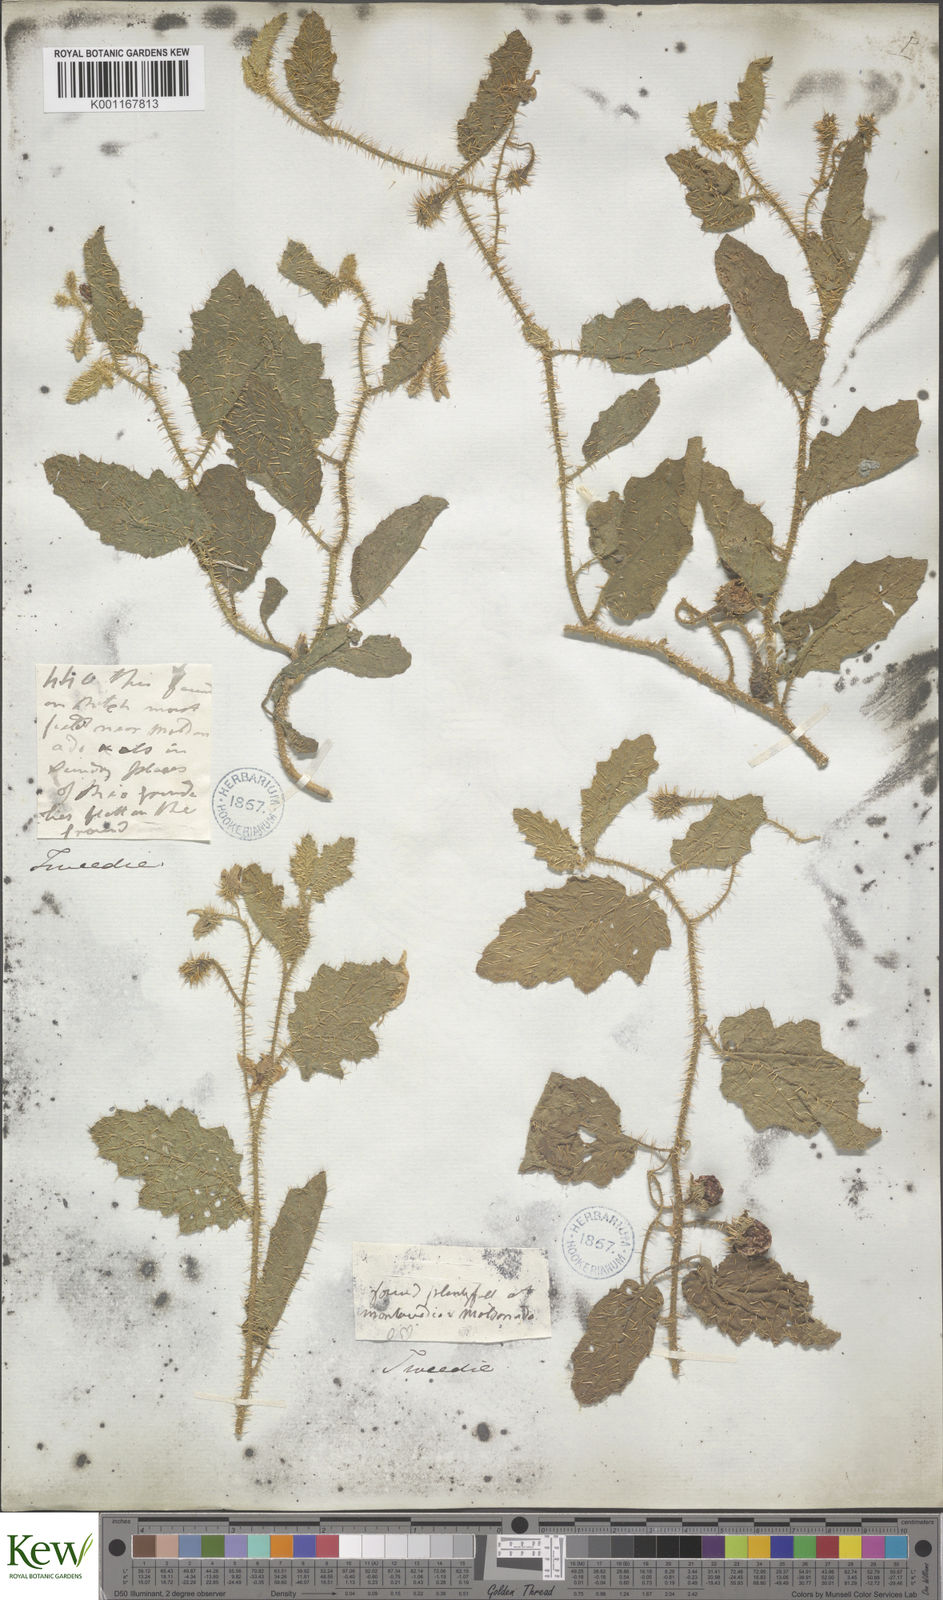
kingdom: Plantae
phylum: Tracheophyta
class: Magnoliopsida
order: Solanales
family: Solanaceae
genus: Solanum
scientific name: Solanum agrarium
